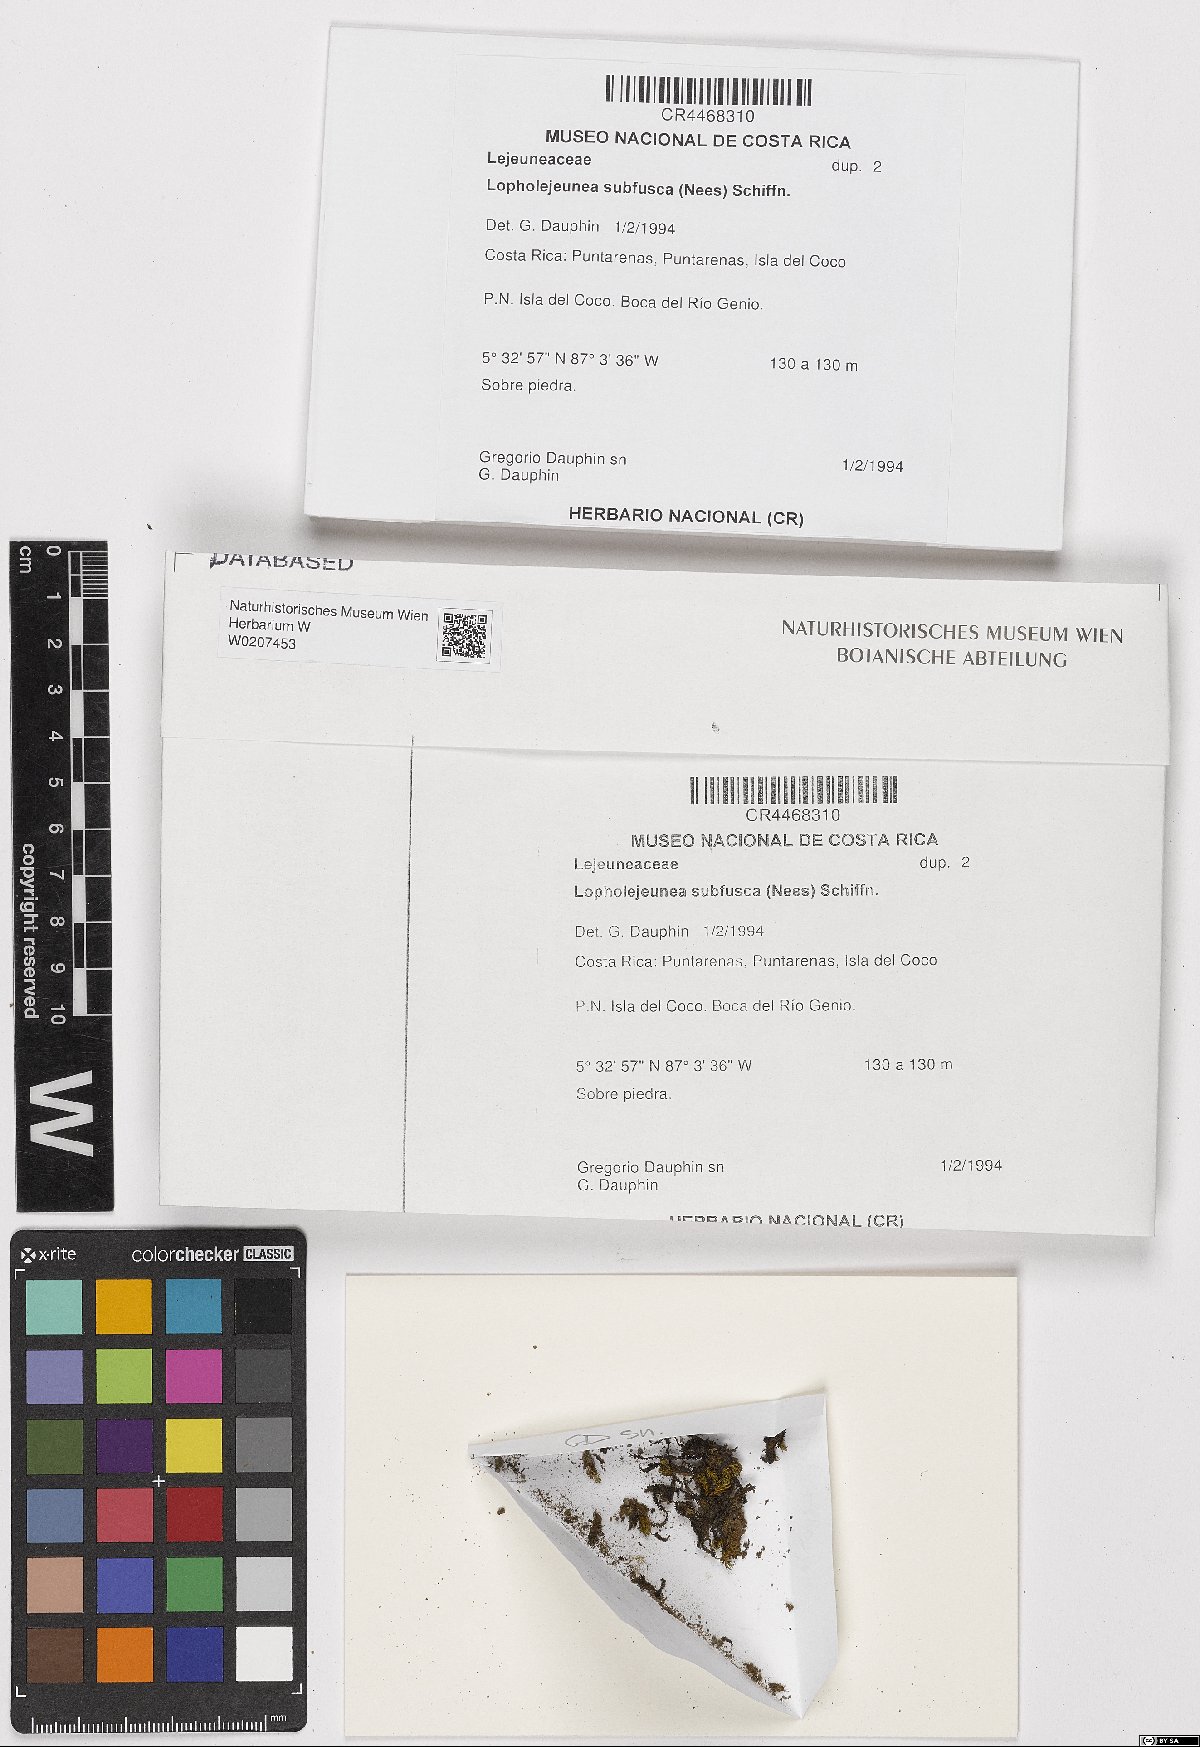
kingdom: Plantae
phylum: Marchantiophyta
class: Jungermanniopsida
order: Porellales
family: Lejeuneaceae
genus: Lopholejeunea
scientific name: Lopholejeunea subfusca
